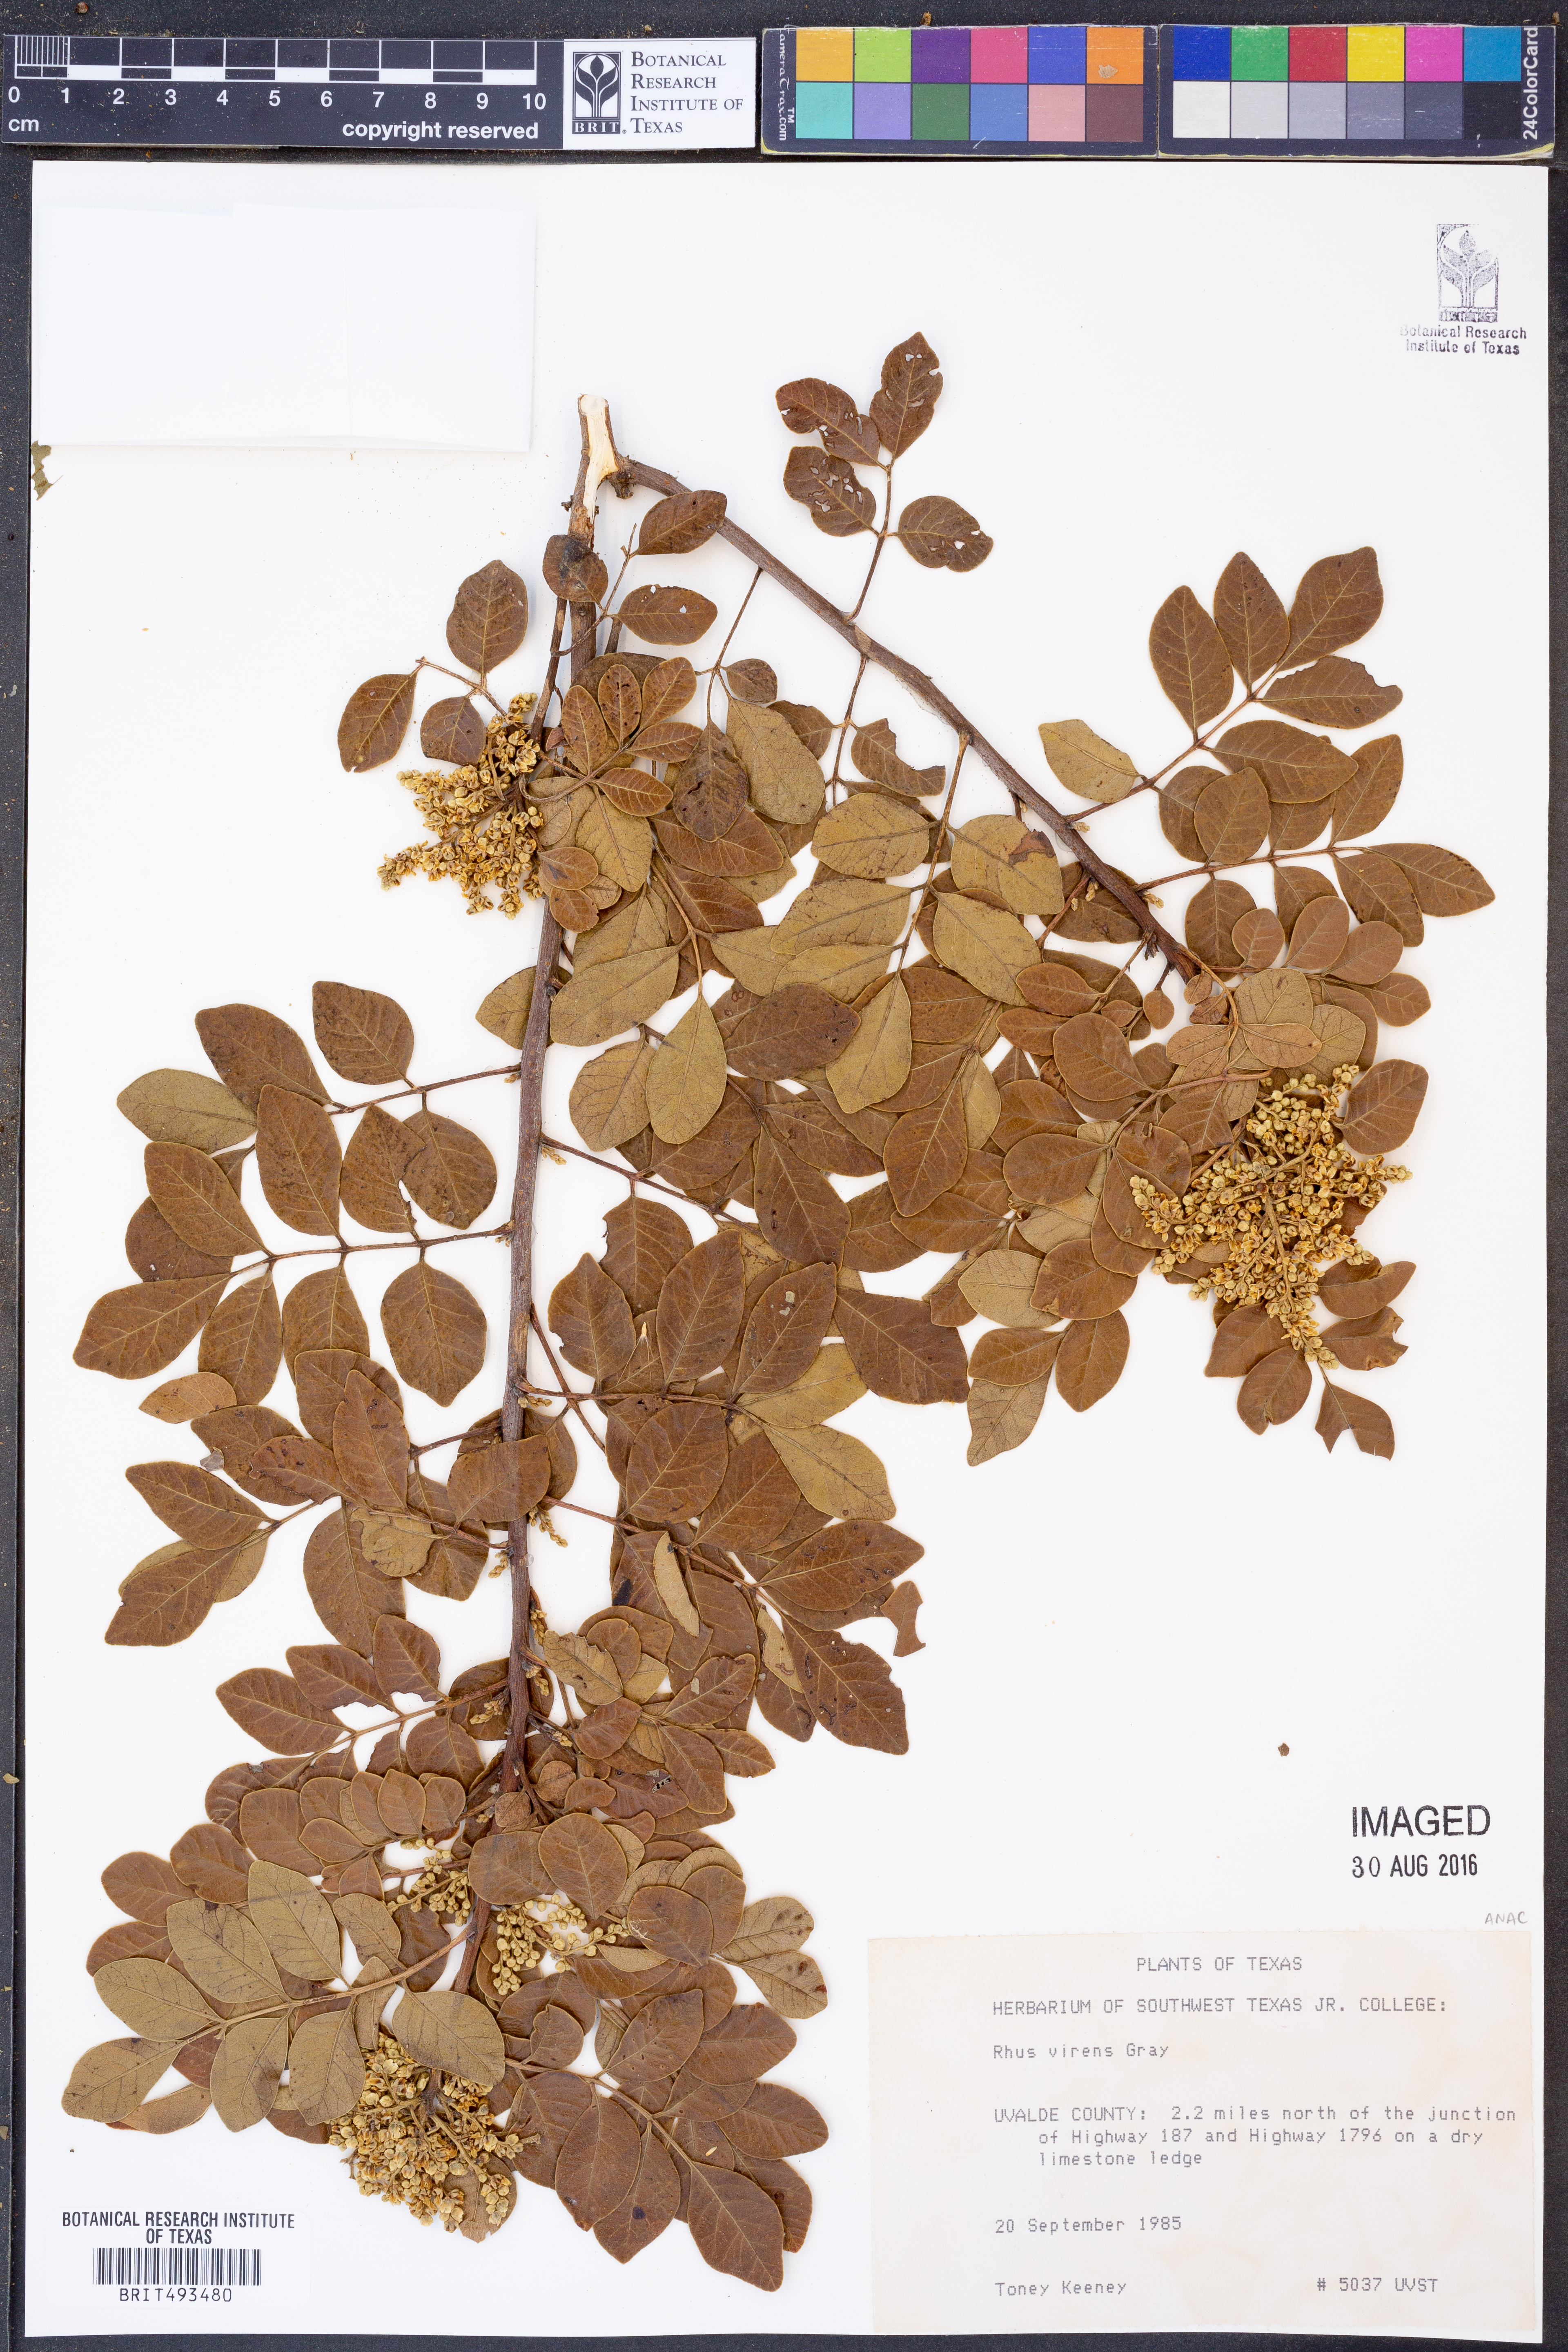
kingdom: Plantae
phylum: Tracheophyta
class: Magnoliopsida
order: Sapindales
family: Anacardiaceae
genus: Rhus
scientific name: Rhus virens
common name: Evergreen sumac
